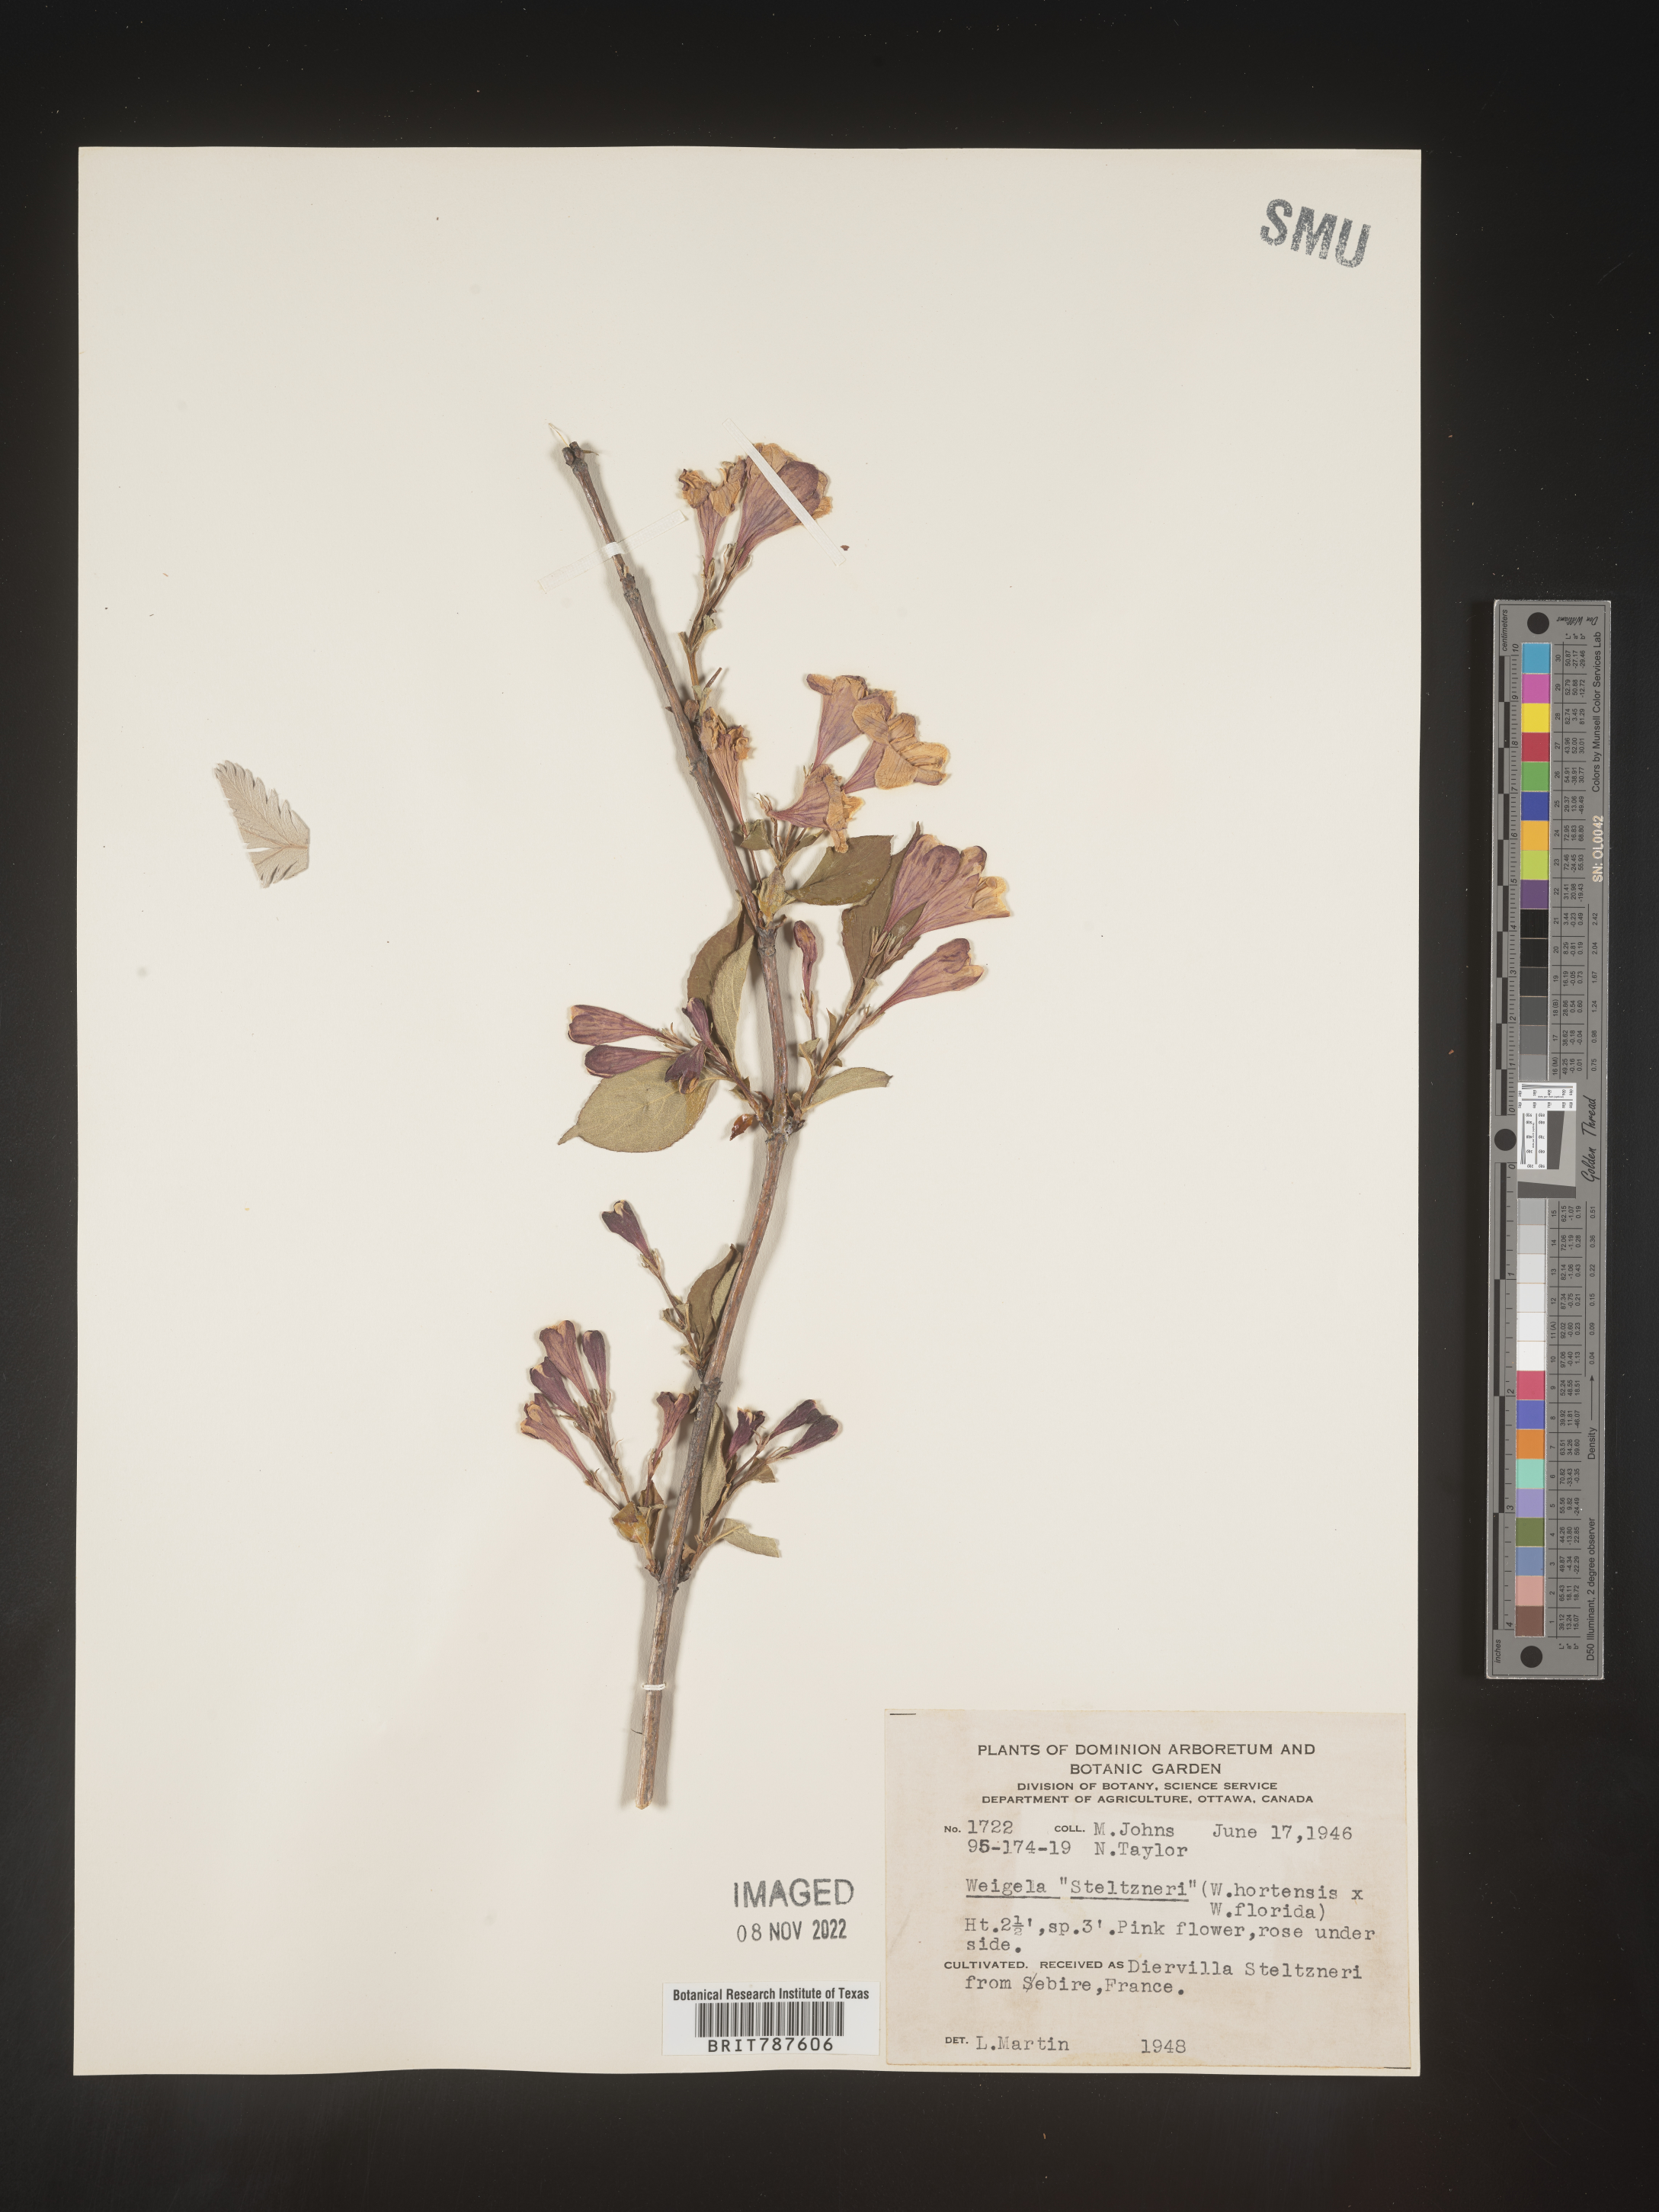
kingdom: Plantae
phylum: Tracheophyta
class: Magnoliopsida
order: Dipsacales
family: Caprifoliaceae
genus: Weigela
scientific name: Weigela
